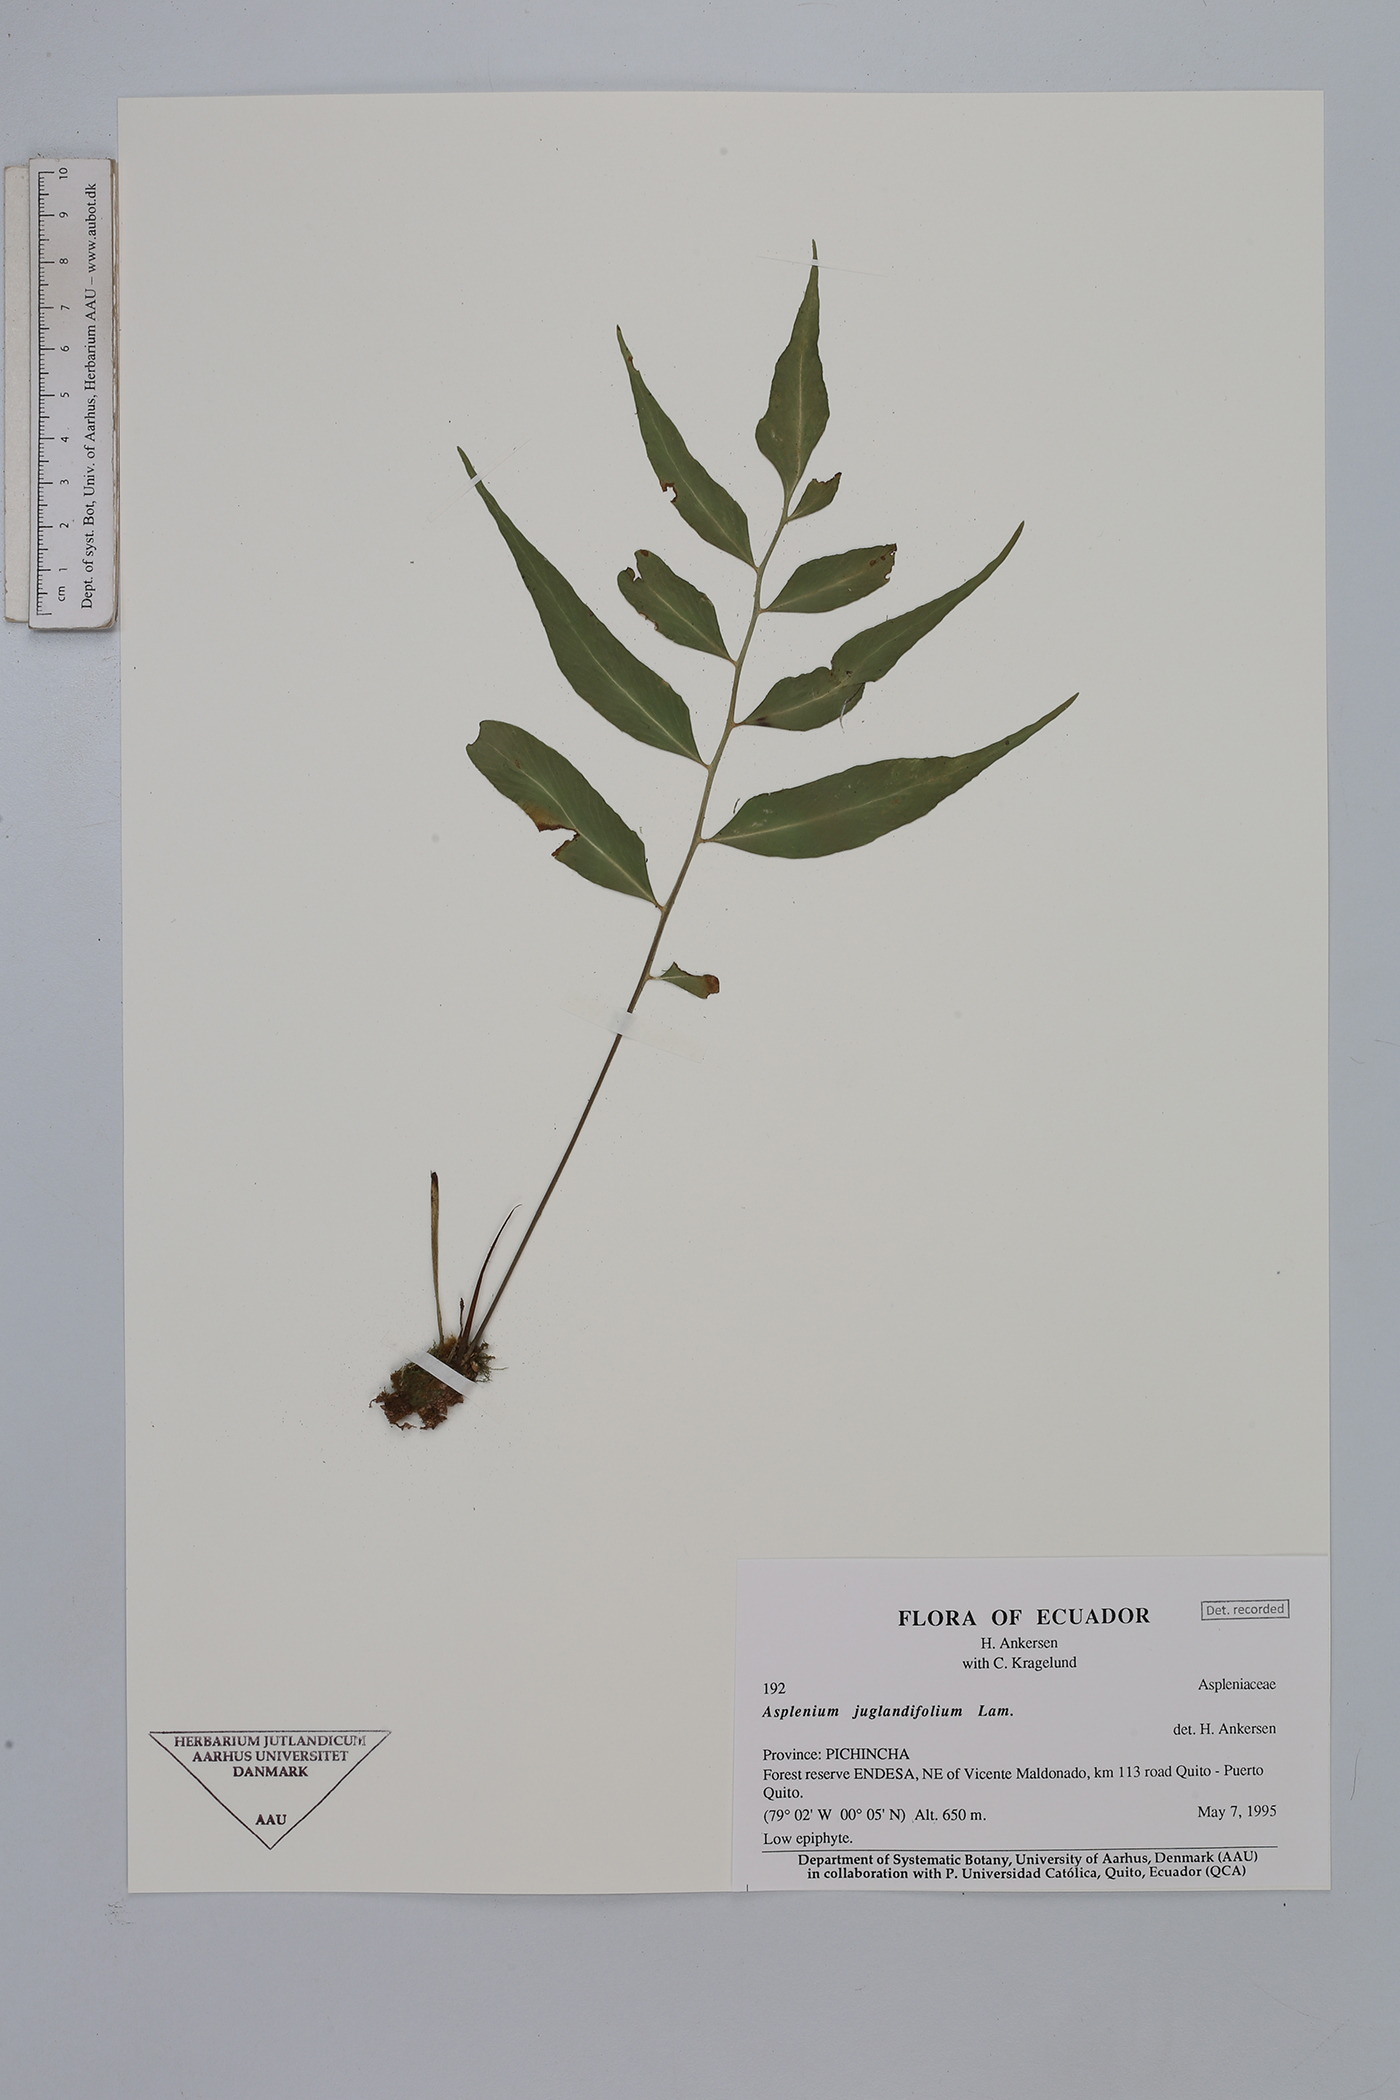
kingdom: Plantae
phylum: Tracheophyta
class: Polypodiopsida
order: Polypodiales
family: Aspleniaceae
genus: Asplenium
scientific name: Asplenium juglandifolium
